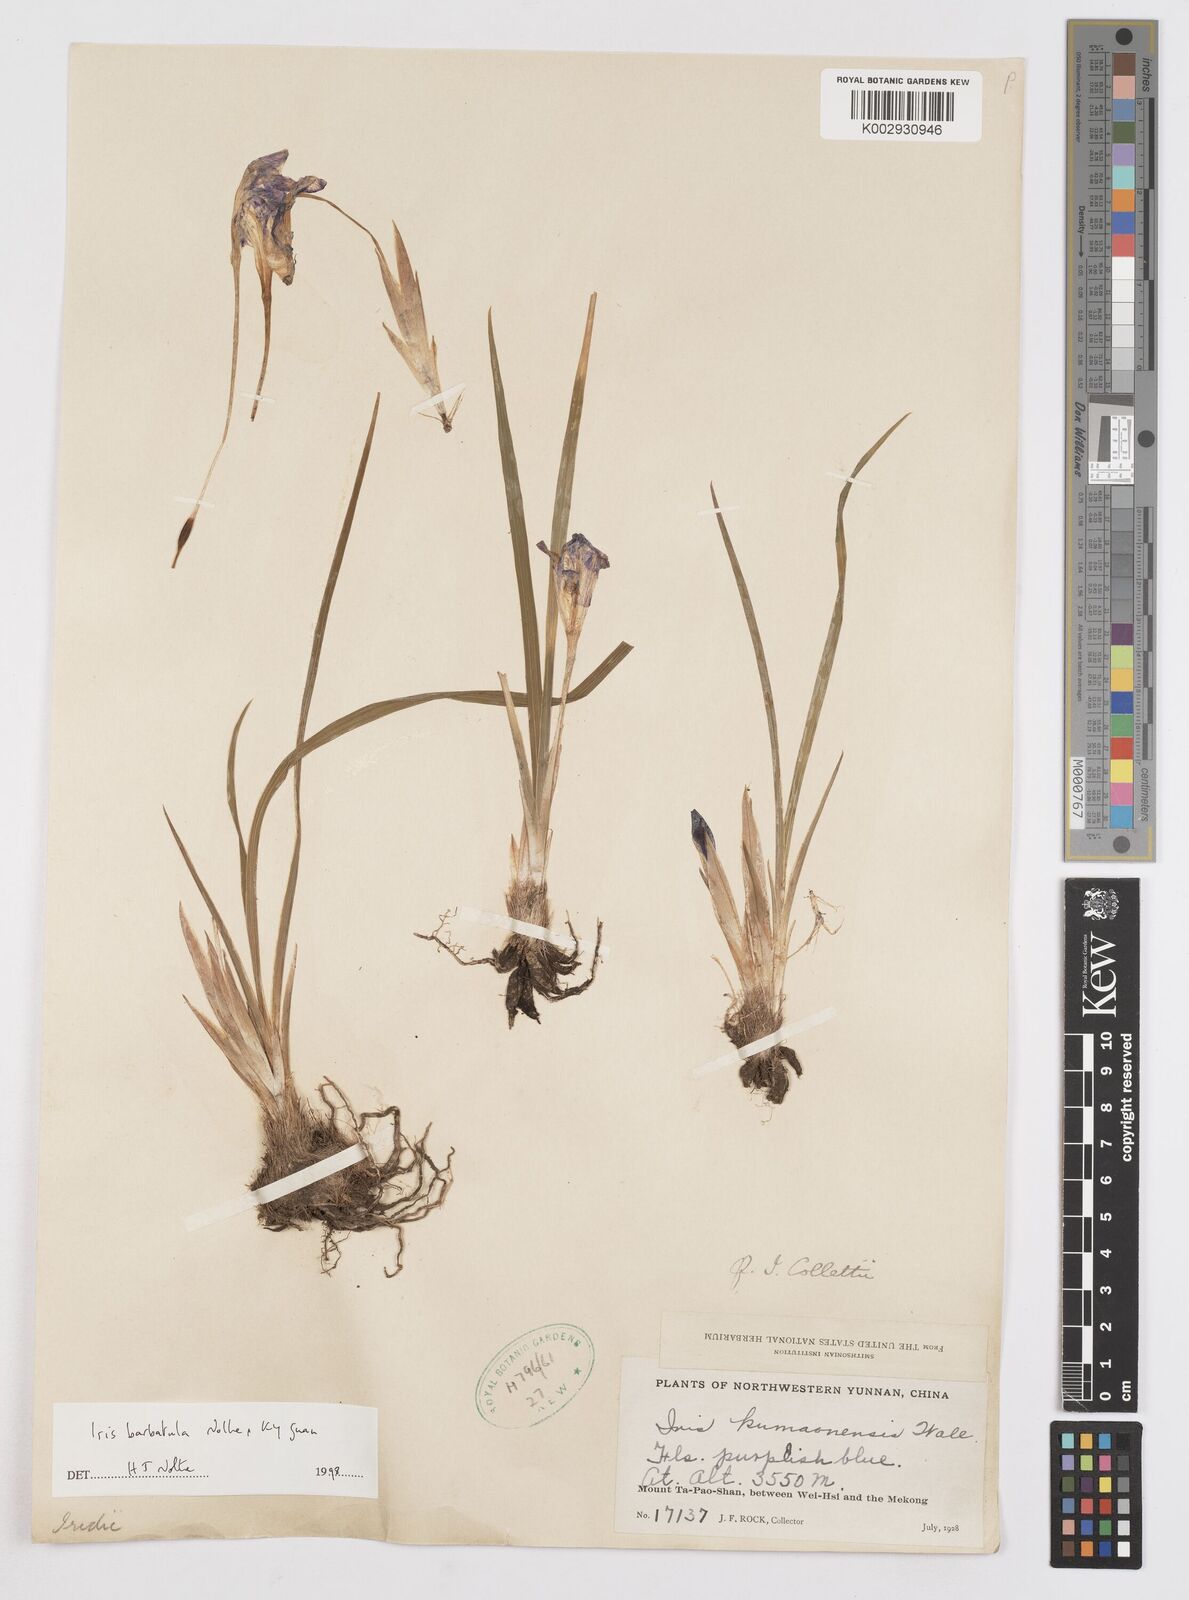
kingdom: Plantae
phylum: Tracheophyta
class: Liliopsida
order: Asparagales
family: Iridaceae
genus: Iris
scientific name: Iris barbatula
